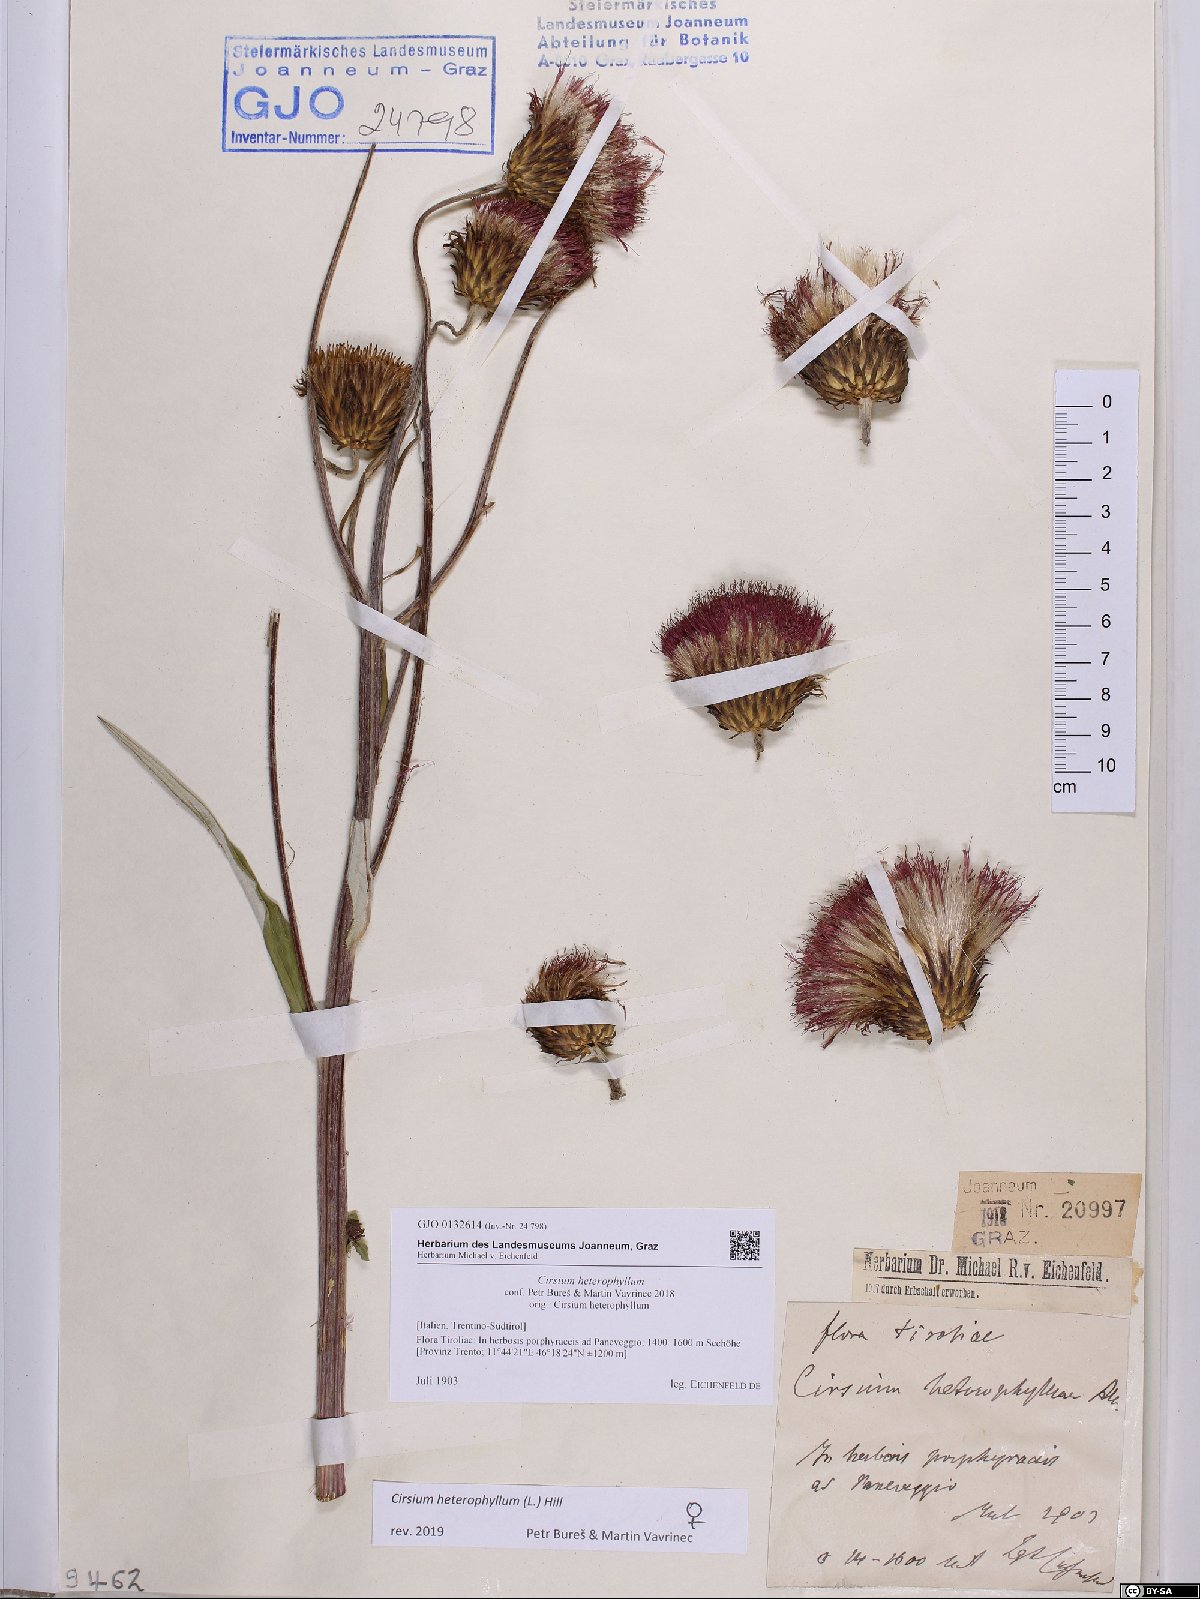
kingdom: Plantae
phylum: Tracheophyta
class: Magnoliopsida
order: Asterales
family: Asteraceae
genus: Cirsium
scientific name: Cirsium heterophyllum
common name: Melancholy thistle
